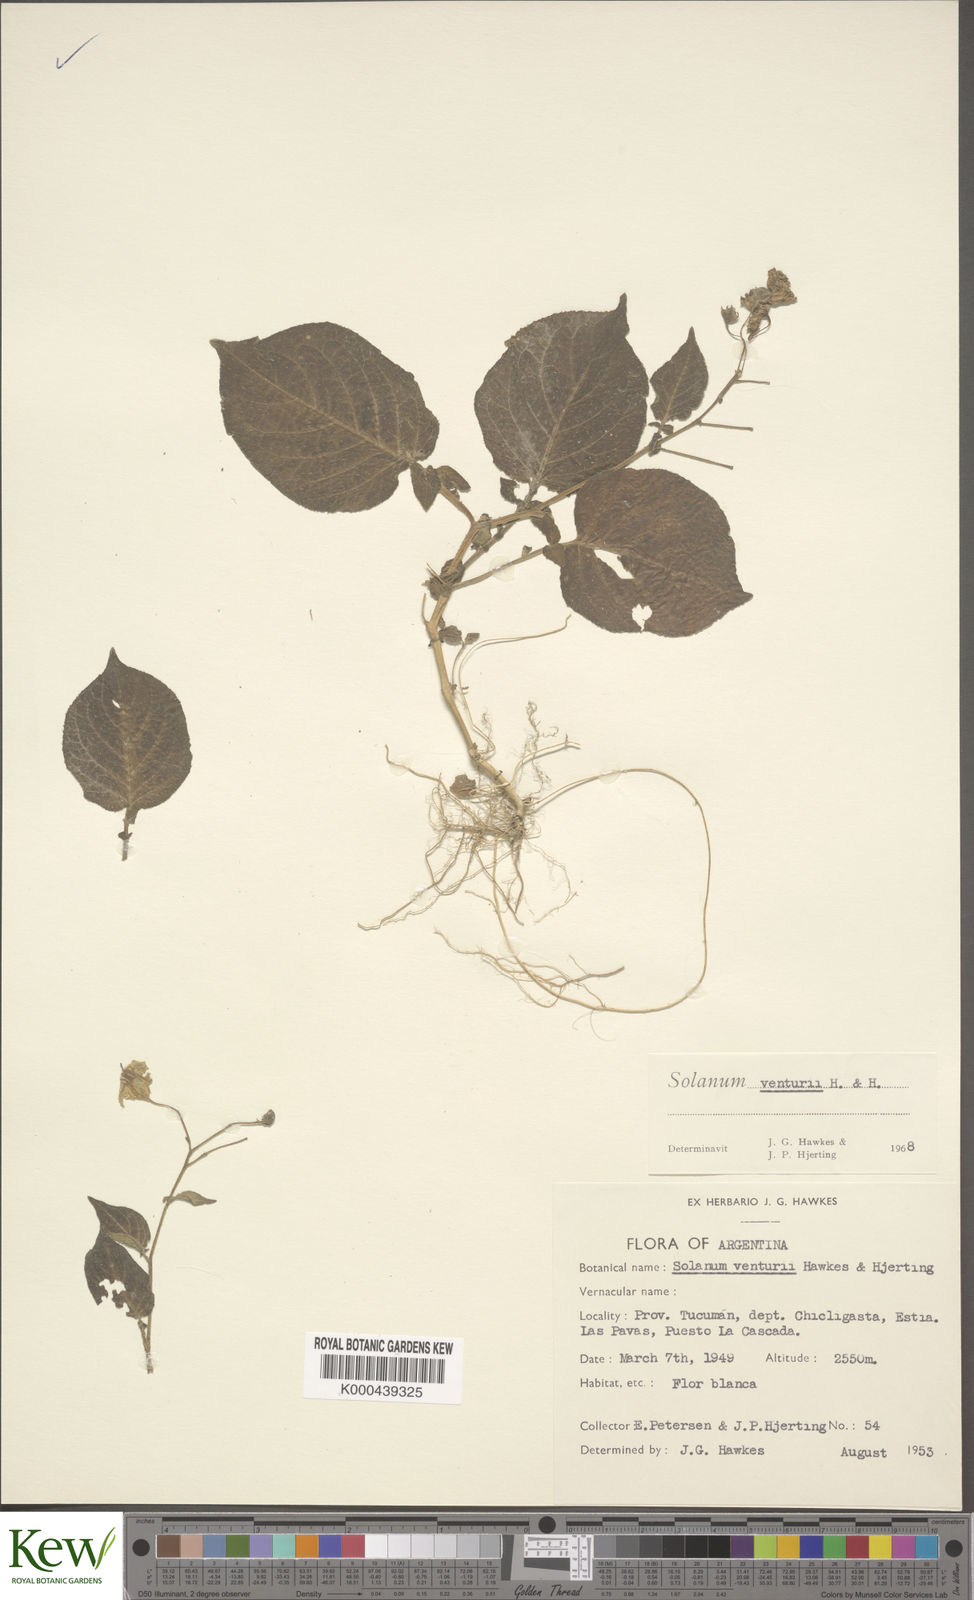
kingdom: Plantae
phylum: Tracheophyta
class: Magnoliopsida
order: Solanales
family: Solanaceae
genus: Solanum
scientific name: Solanum venturii
